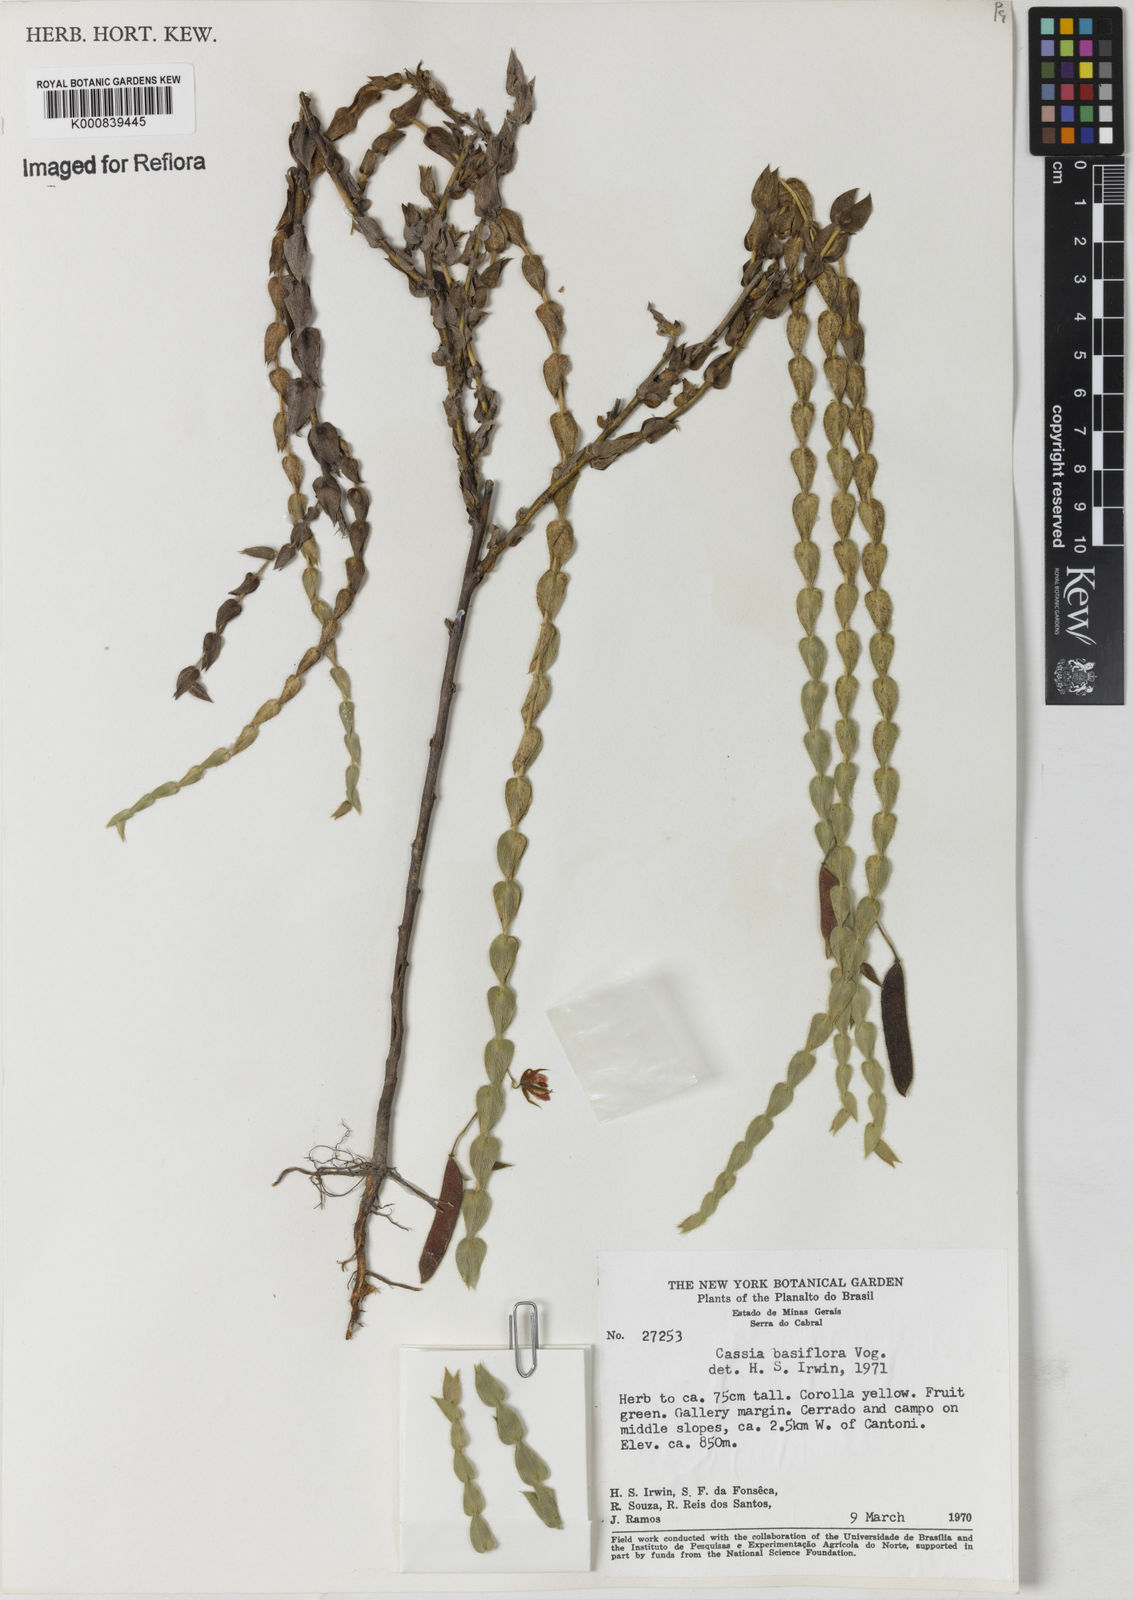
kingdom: Plantae
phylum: Tracheophyta
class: Magnoliopsida
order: Fabales
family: Fabaceae
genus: Chamaecrista
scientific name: Chamaecrista basifolia
